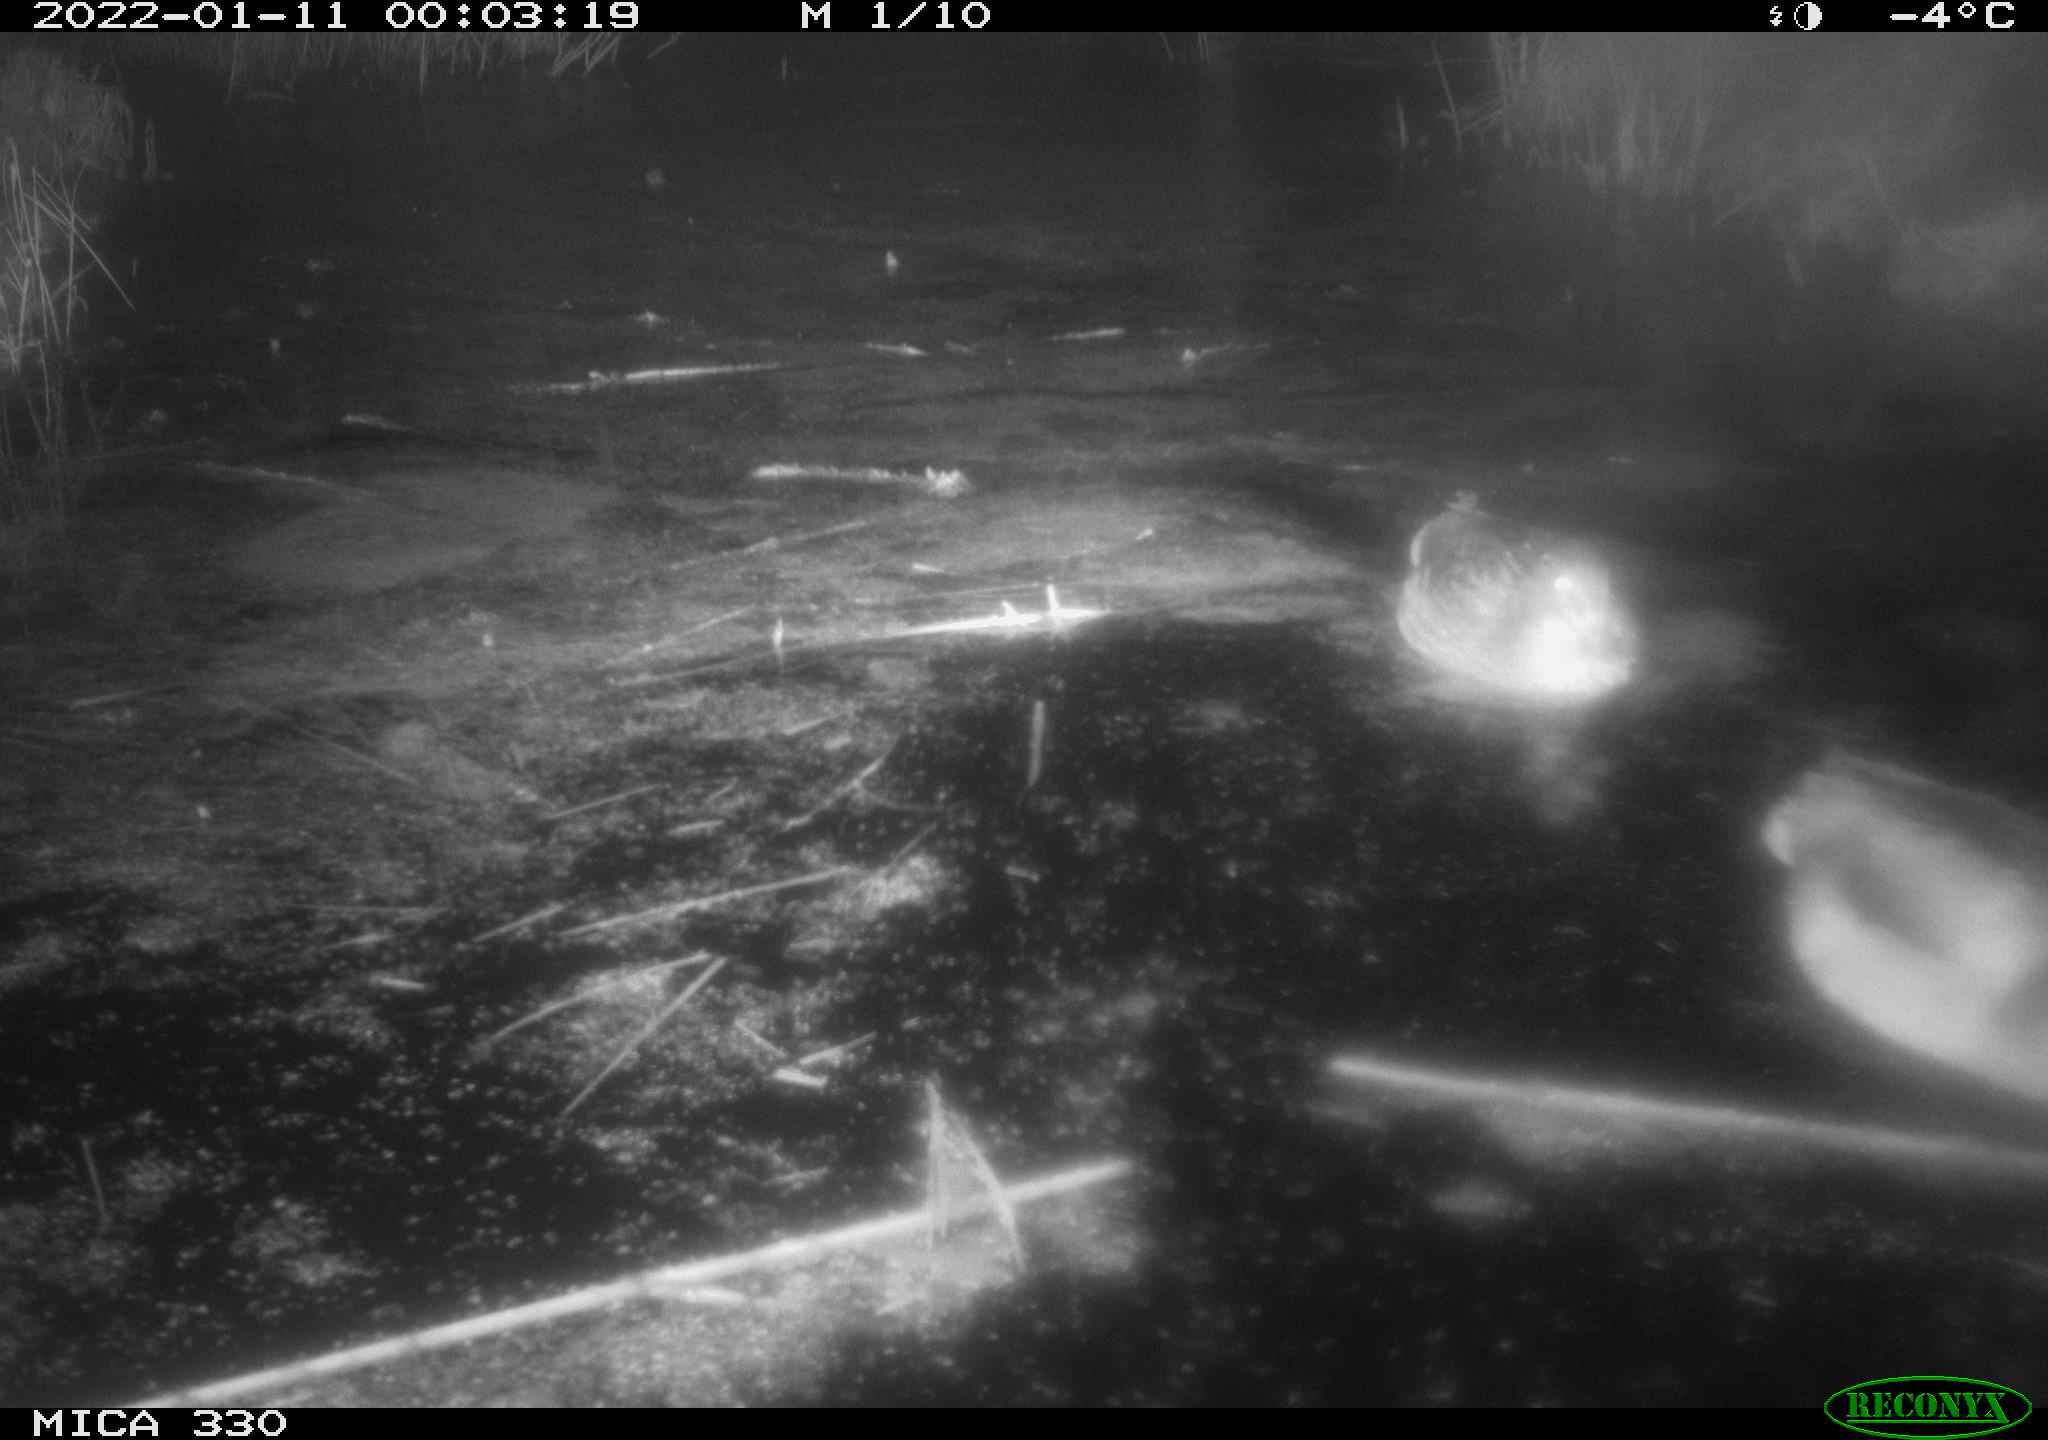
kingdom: Animalia
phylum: Chordata
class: Aves
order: Anseriformes
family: Anatidae
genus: Anas
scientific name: Anas platyrhynchos
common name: Mallard
